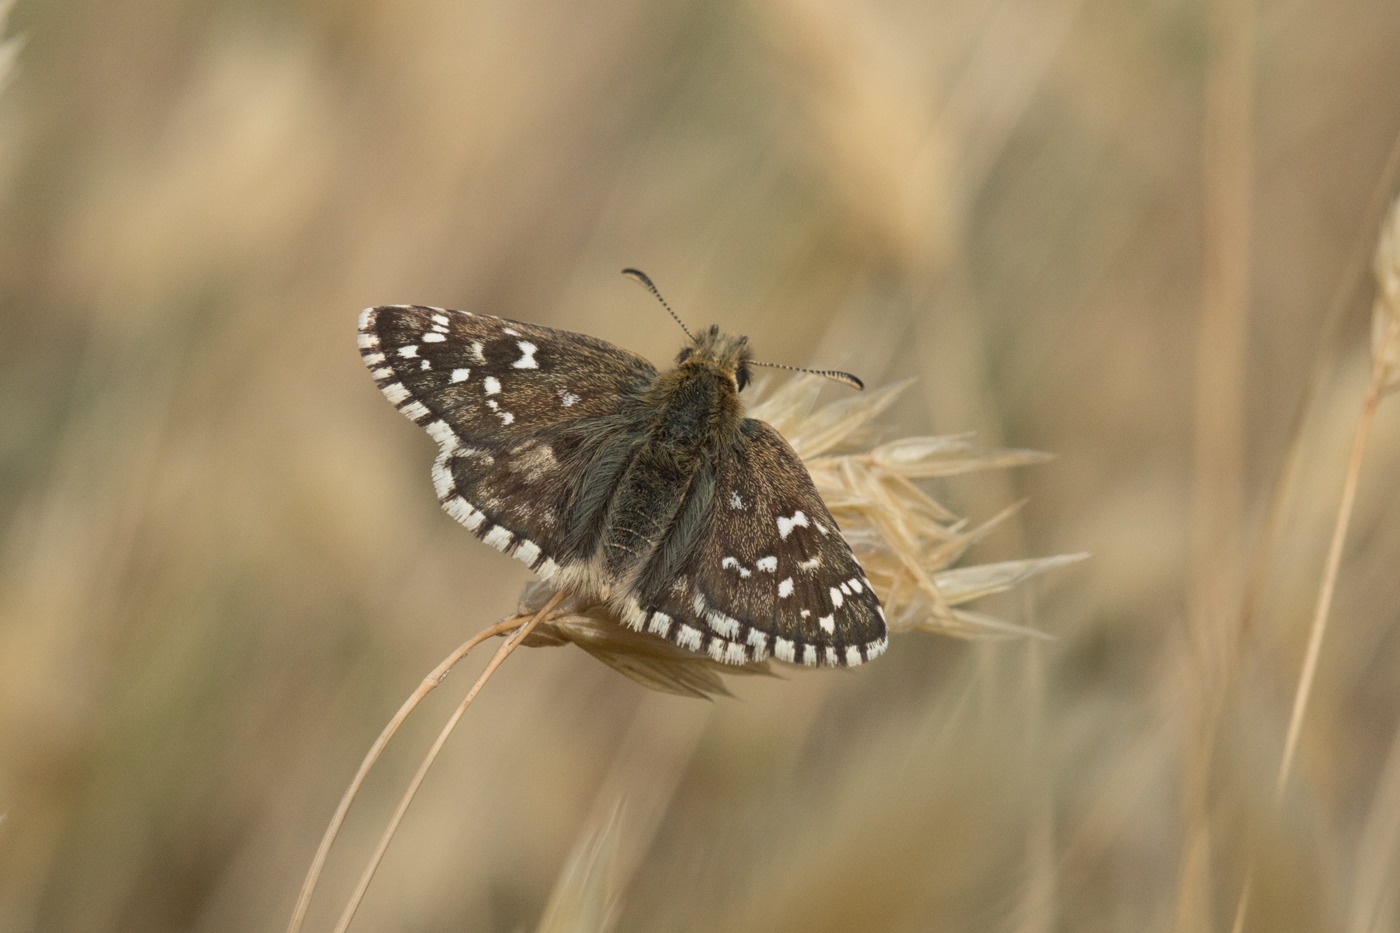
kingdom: Animalia
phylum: Arthropoda
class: Insecta
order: Lepidoptera
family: Hesperiidae
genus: Pyrgus
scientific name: Pyrgus armoricanus
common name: Fransk bredpande
